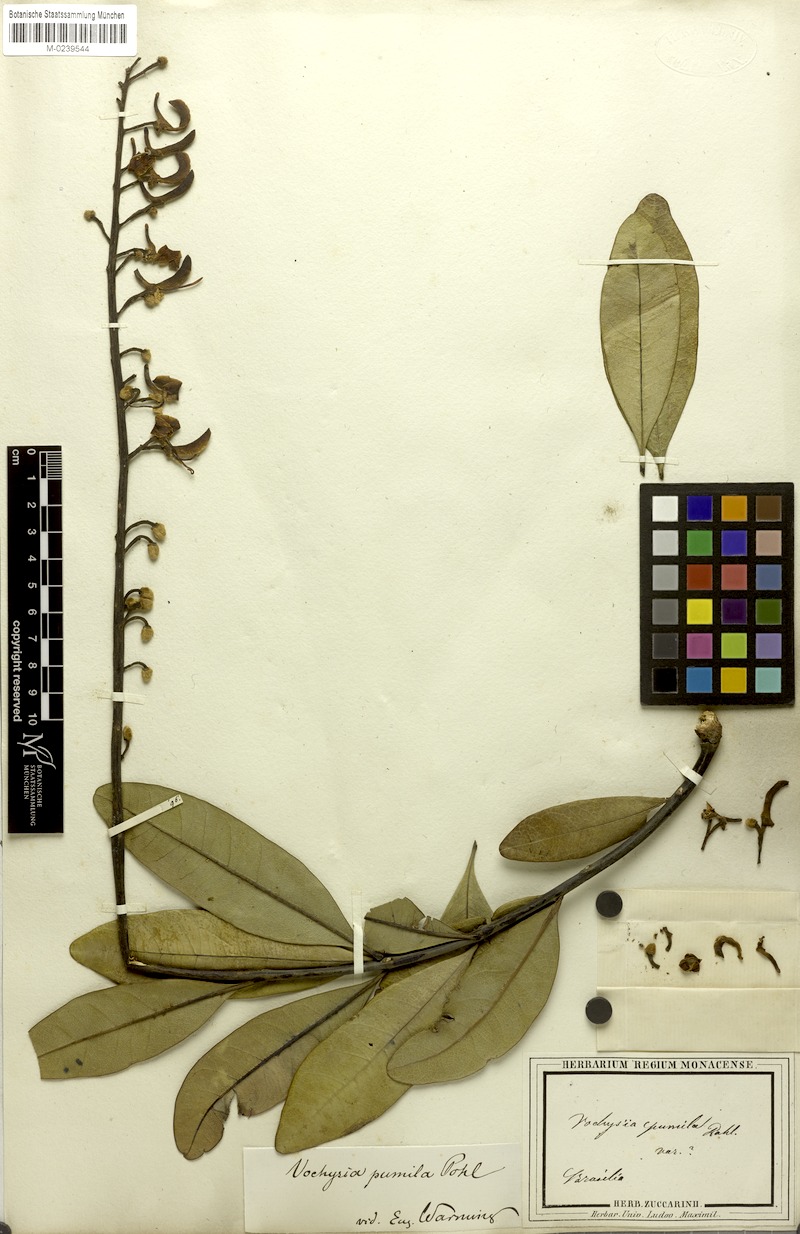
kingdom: Plantae
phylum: Tracheophyta
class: Magnoliopsida
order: Myrtales
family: Vochysiaceae
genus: Vochysia
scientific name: Vochysia pumila
